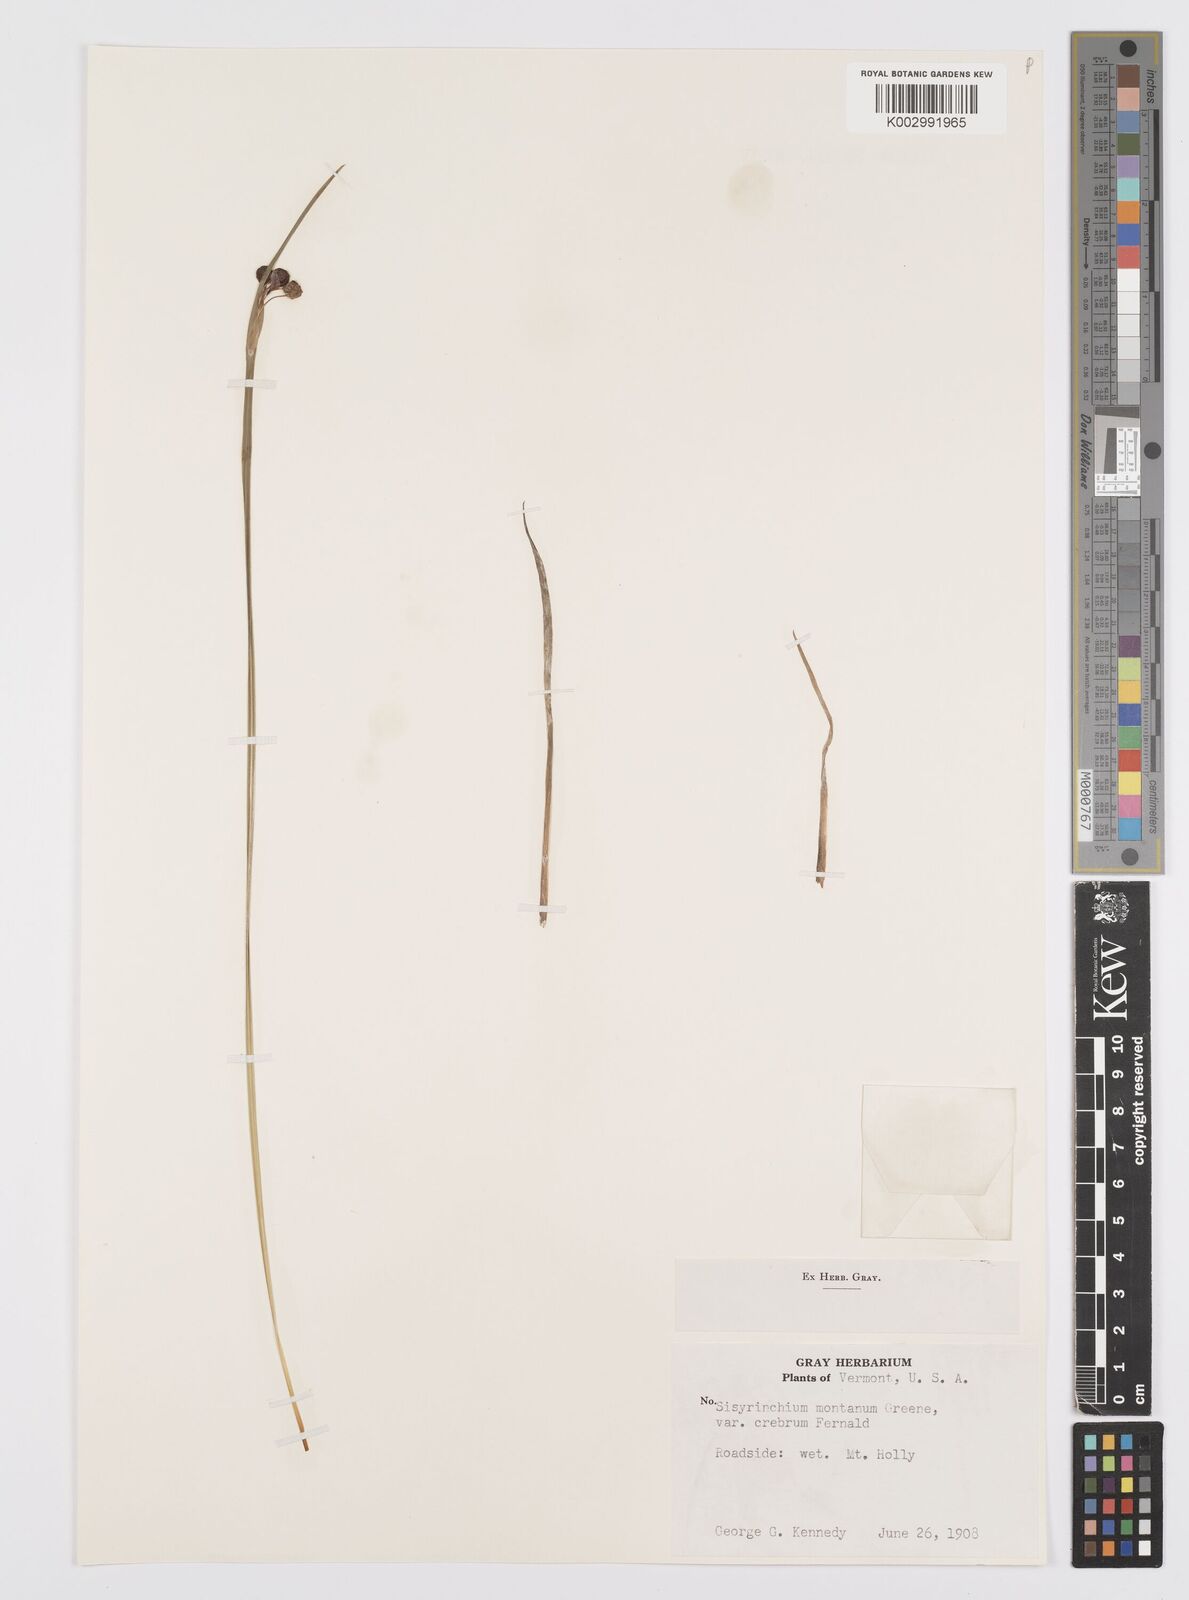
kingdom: Plantae
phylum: Tracheophyta
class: Liliopsida
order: Asparagales
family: Iridaceae
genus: Sisyrinchium
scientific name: Sisyrinchium montanum
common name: American blue-eyed-grass
